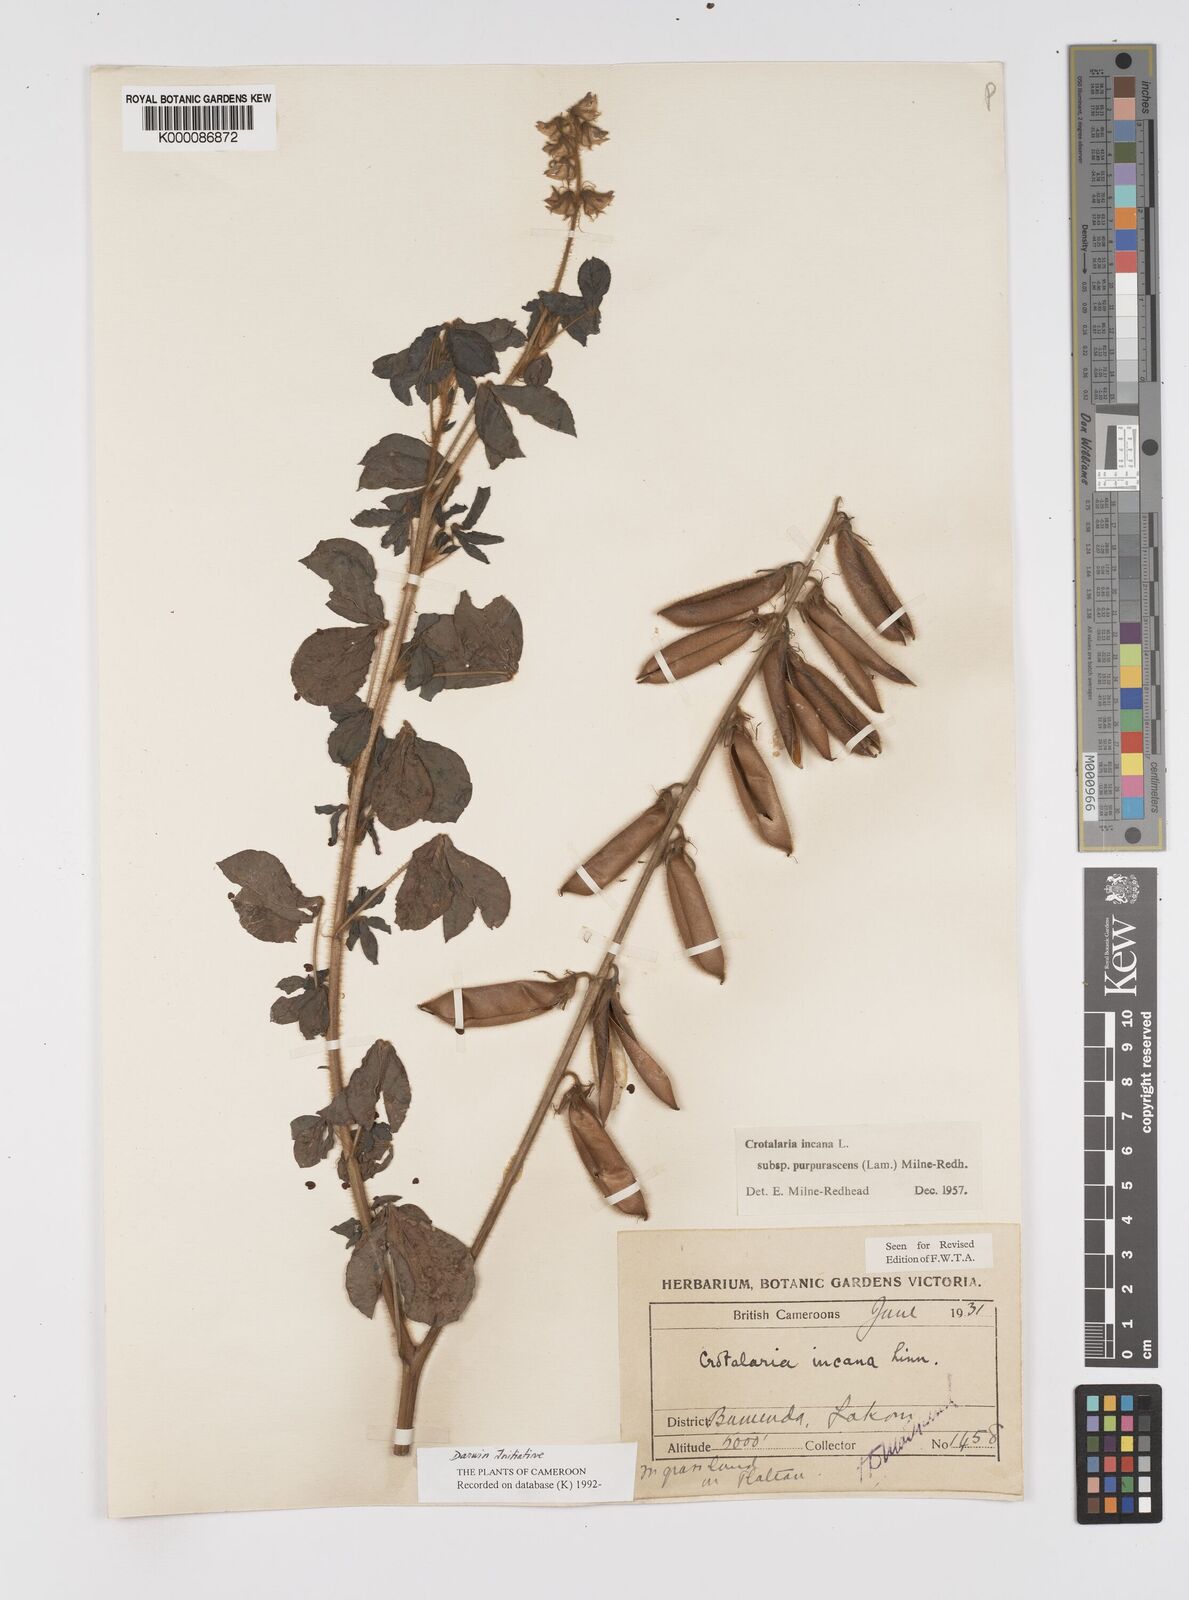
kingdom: Plantae
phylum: Tracheophyta
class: Magnoliopsida
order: Fabales
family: Fabaceae
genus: Crotalaria
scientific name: Crotalaria incana
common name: Shakeshake
